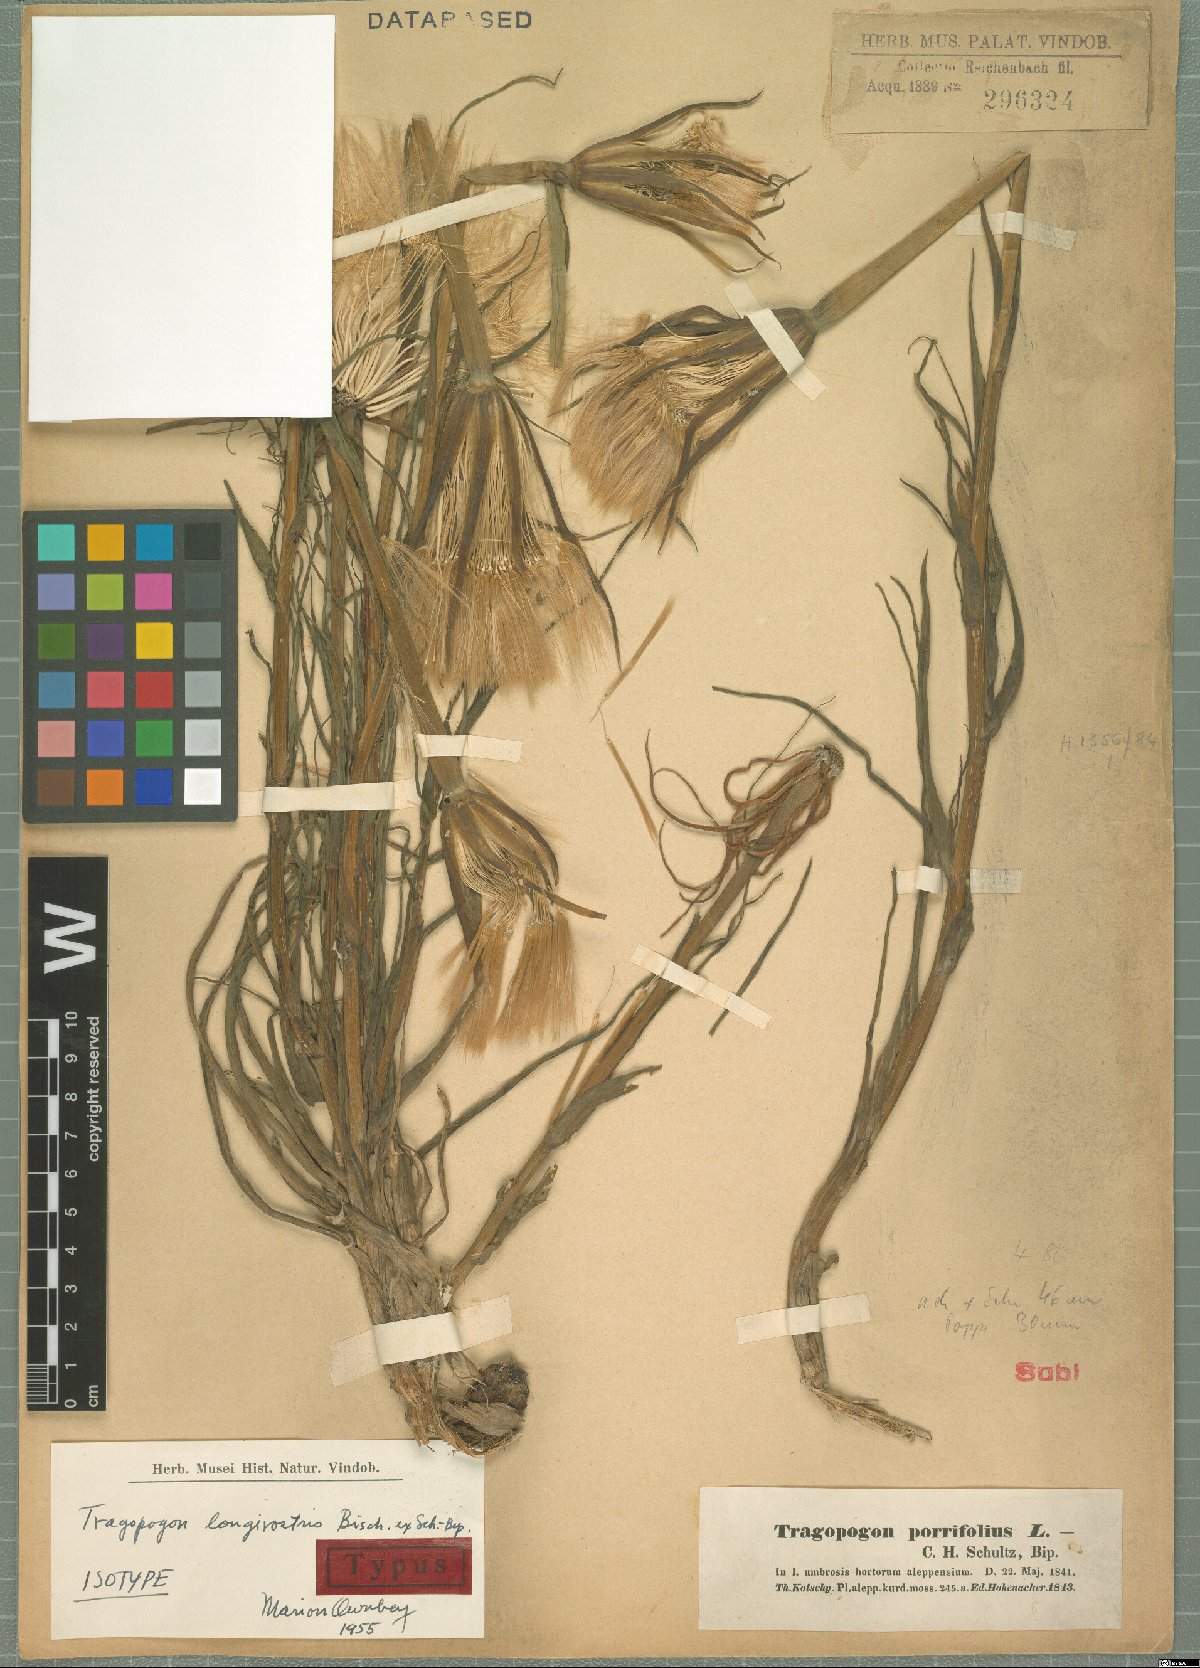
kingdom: Plantae
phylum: Tracheophyta
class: Magnoliopsida
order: Asterales
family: Asteraceae
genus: Tragopogon
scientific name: Tragopogon coelesyriacus
